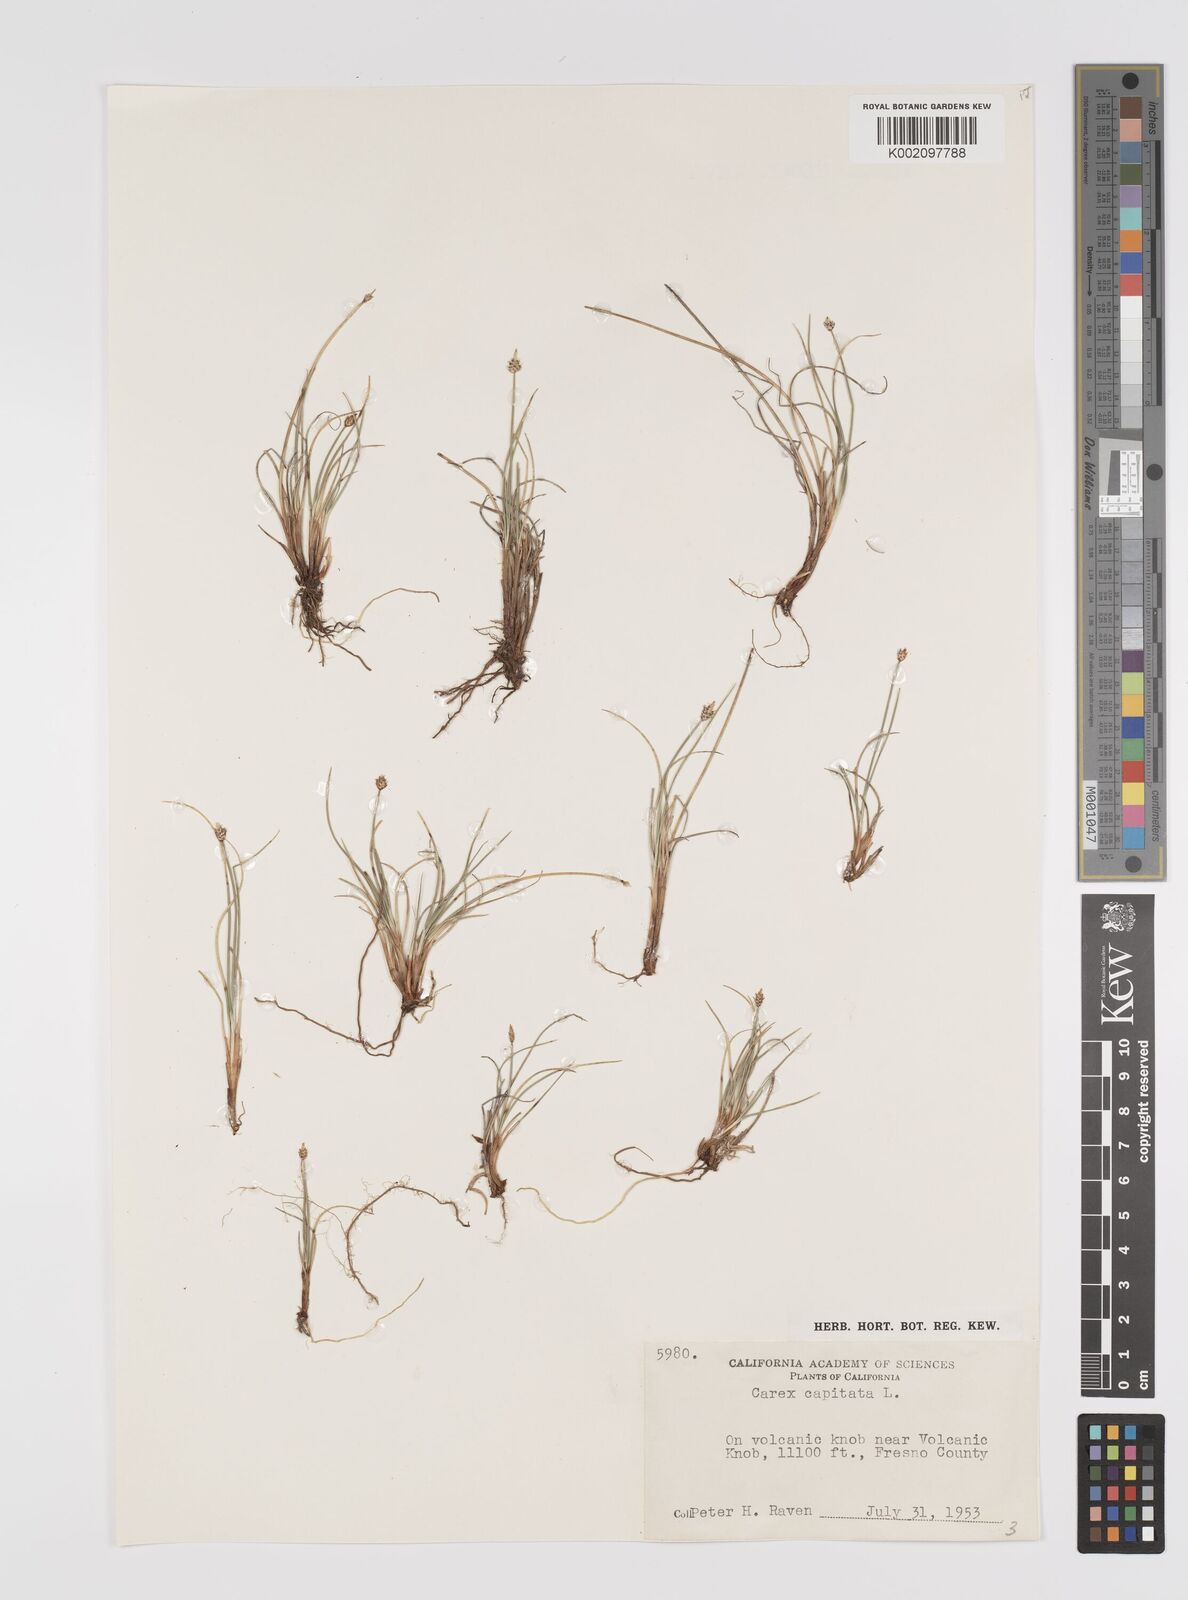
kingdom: Plantae
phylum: Tracheophyta
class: Liliopsida
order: Poales
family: Cyperaceae
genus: Carex
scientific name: Carex capitata
